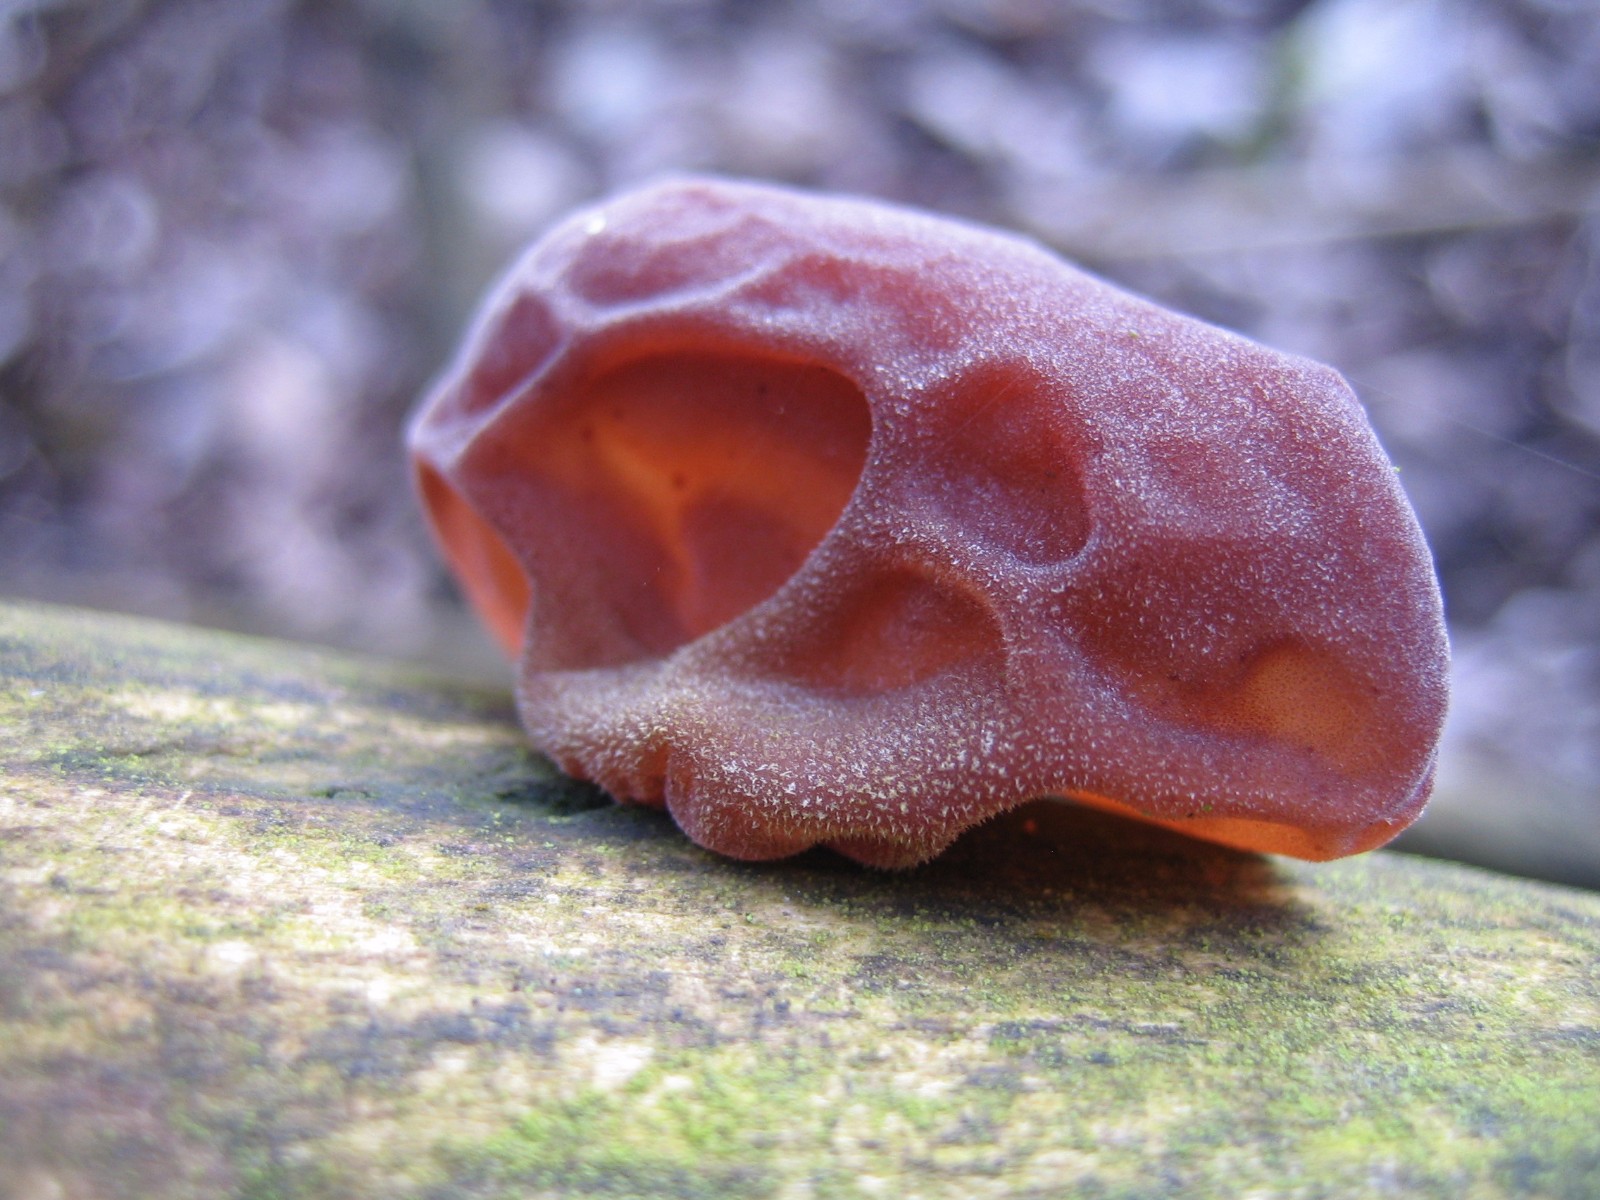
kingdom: Fungi
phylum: Basidiomycota
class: Agaricomycetes
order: Auriculariales
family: Auriculariaceae
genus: Auricularia
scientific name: Auricularia auricula-judae
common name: almindelig judasøre
